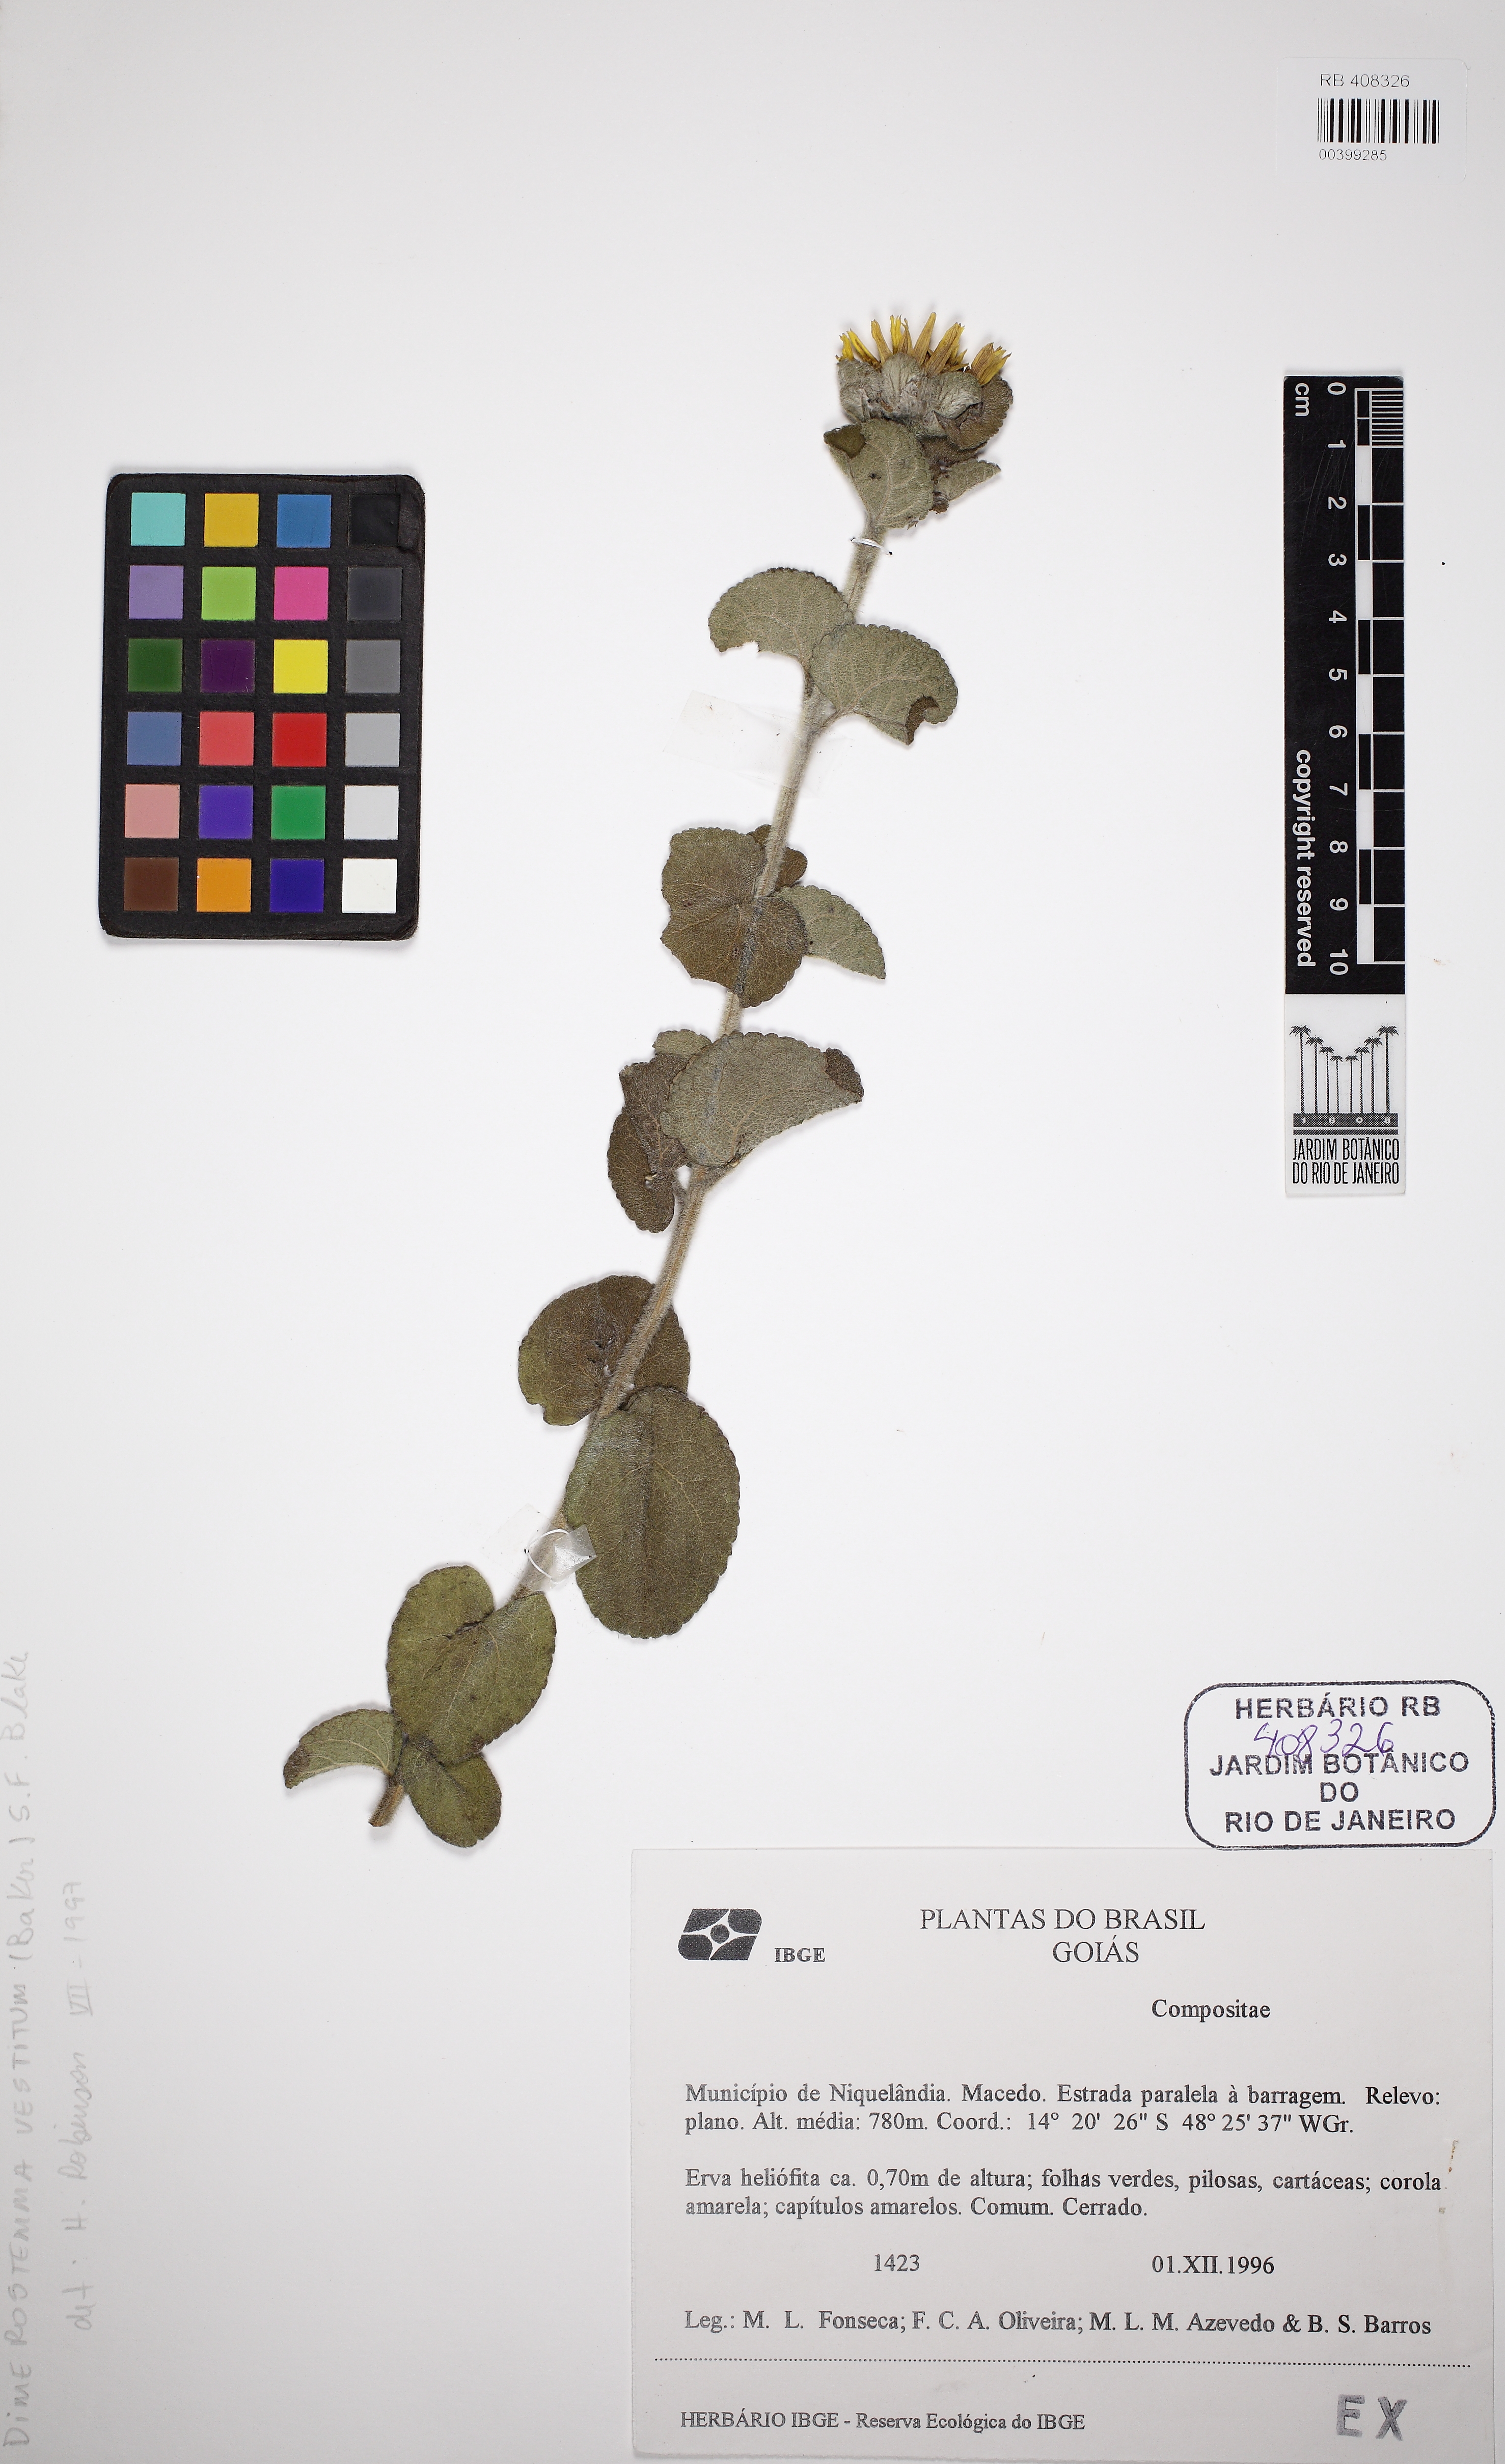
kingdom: Plantae
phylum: Tracheophyta
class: Magnoliopsida
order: Asterales
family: Asteraceae
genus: Dimerostemma
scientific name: Dimerostemma vestitum
